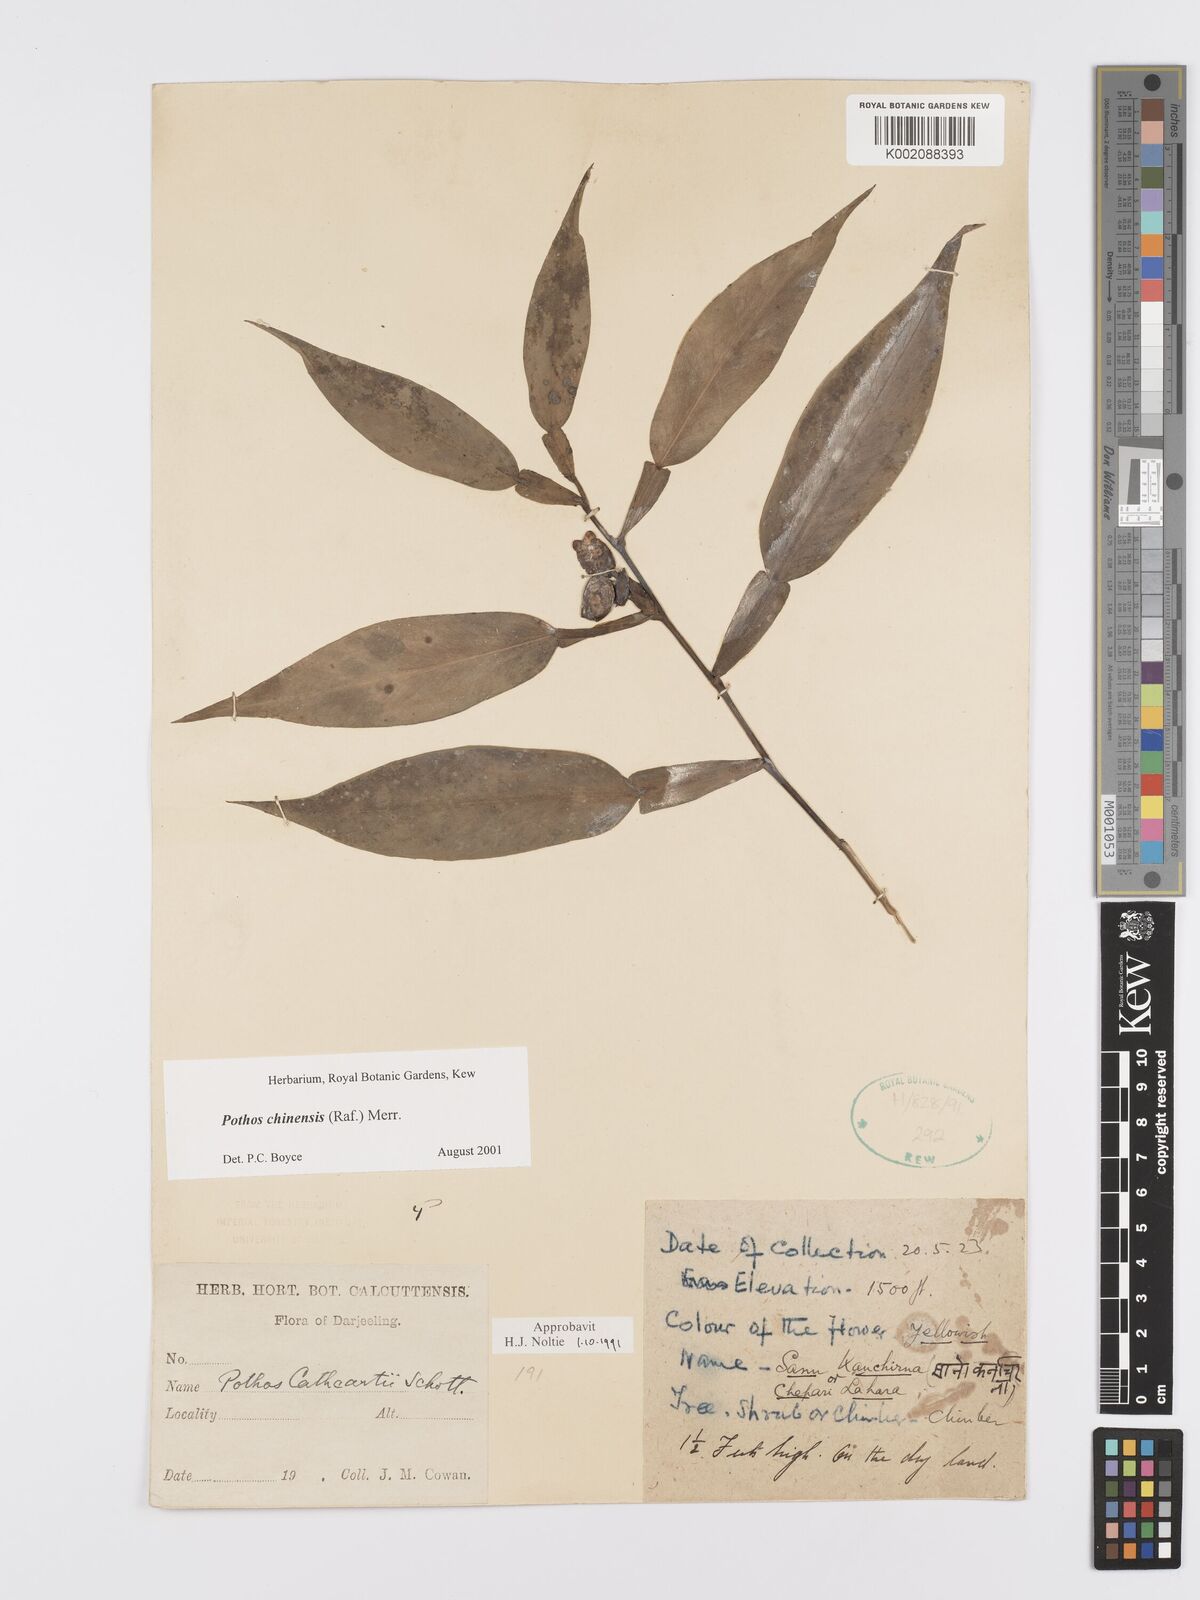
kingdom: Plantae
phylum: Tracheophyta
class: Liliopsida
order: Alismatales
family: Araceae
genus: Pothos
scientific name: Pothos chinensis
